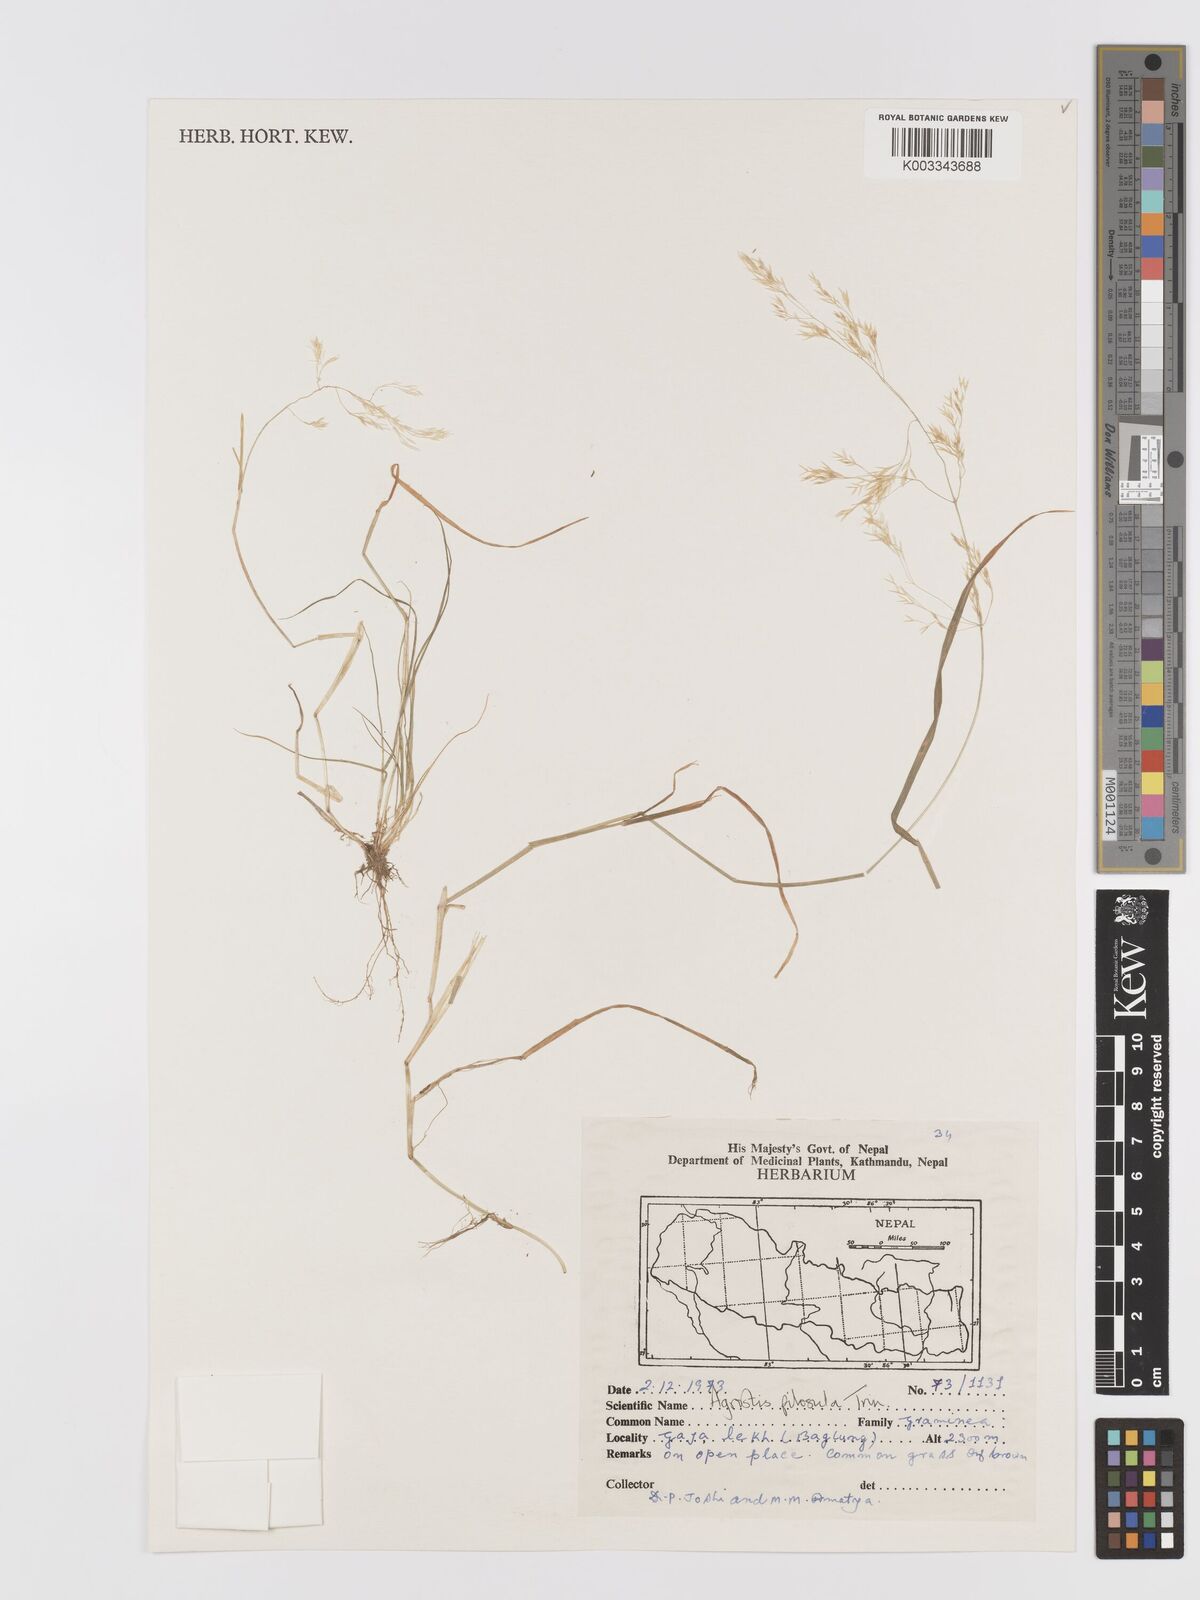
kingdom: Plantae
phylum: Tracheophyta
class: Liliopsida
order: Poales
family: Poaceae
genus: Agrostis
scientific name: Agrostis pilosula
